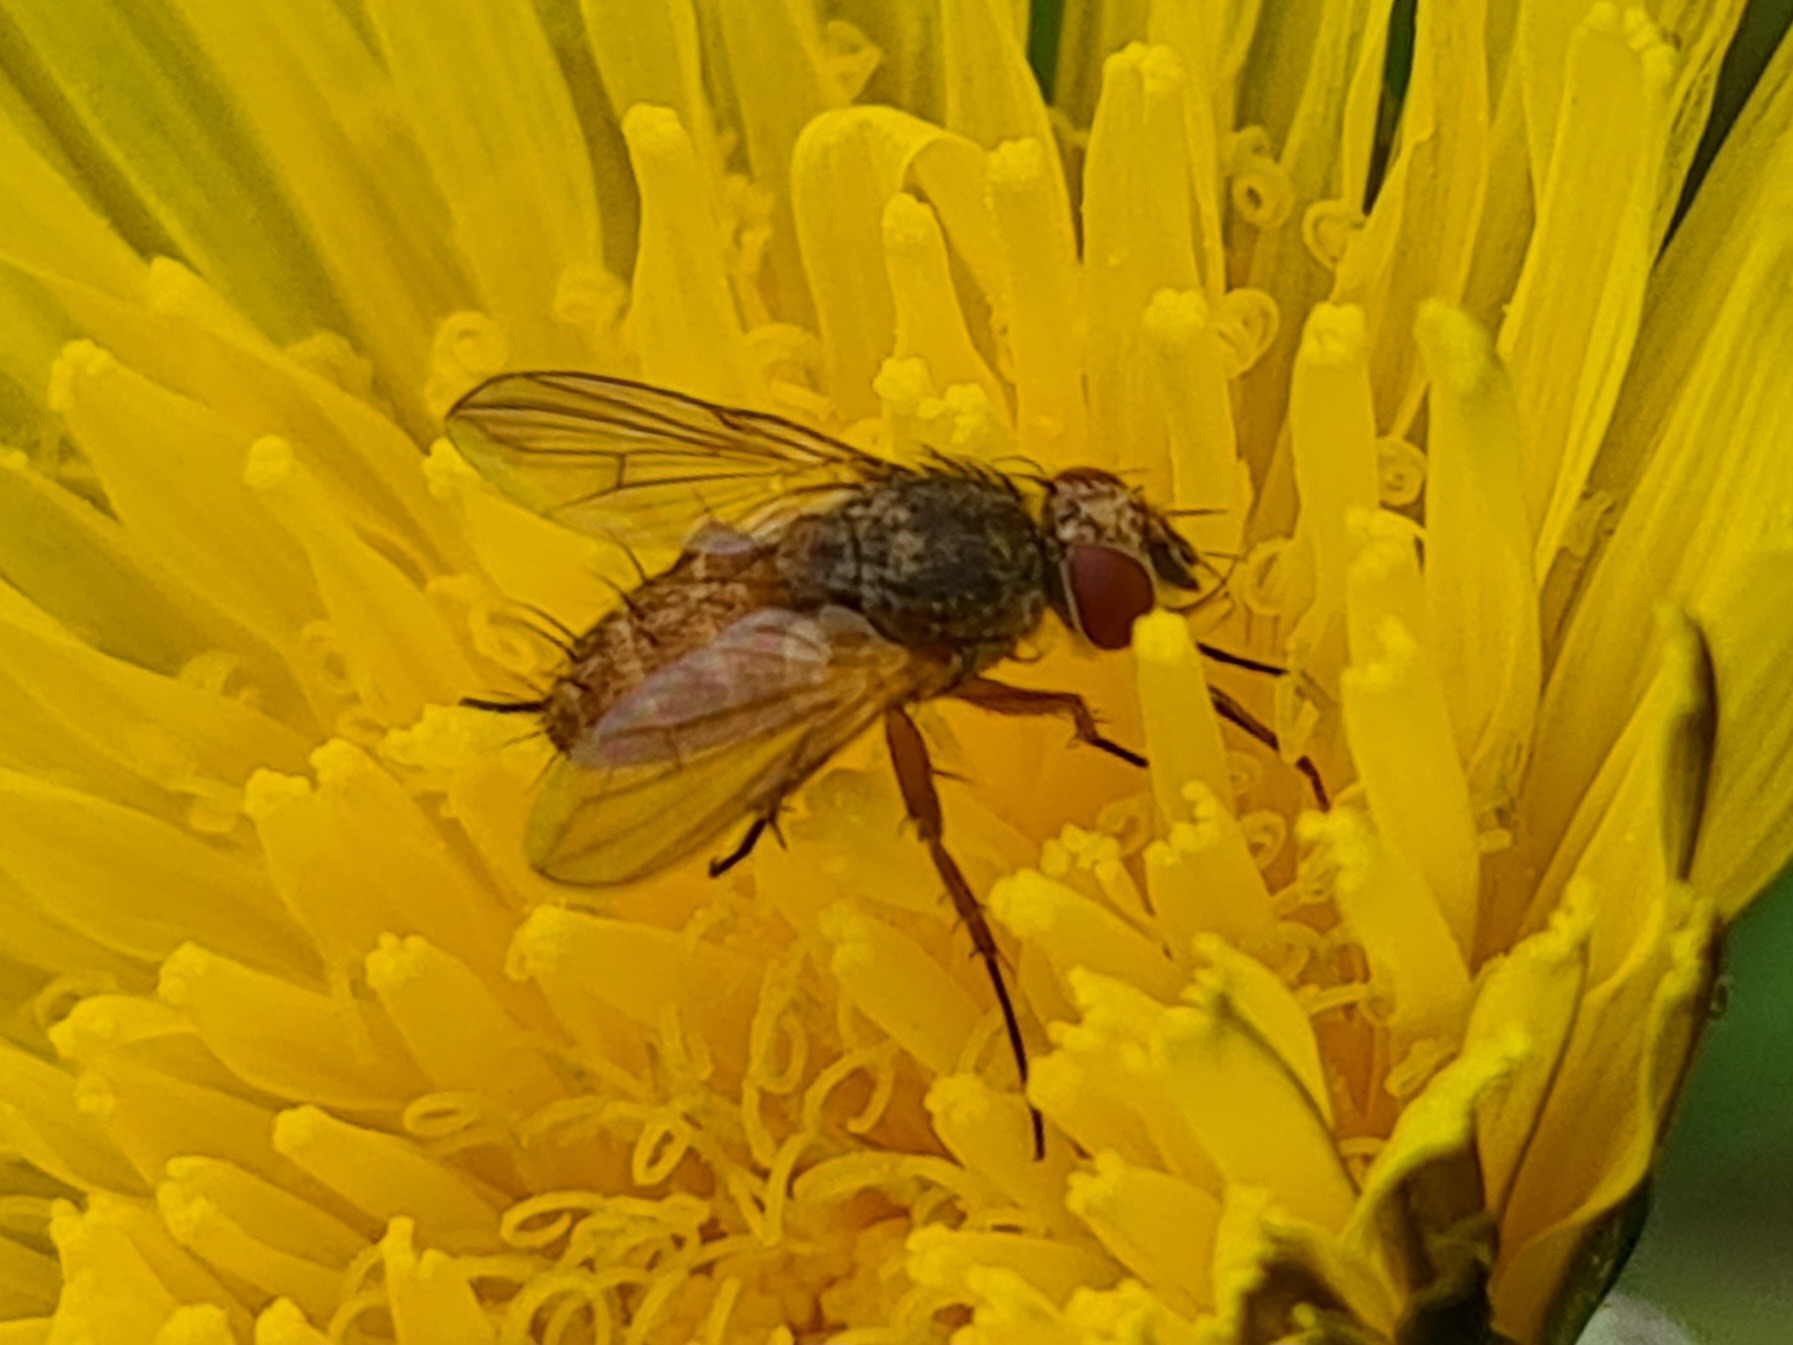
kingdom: Animalia
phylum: Arthropoda
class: Insecta
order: Diptera
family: Tachinidae
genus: Siphona
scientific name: Siphona
